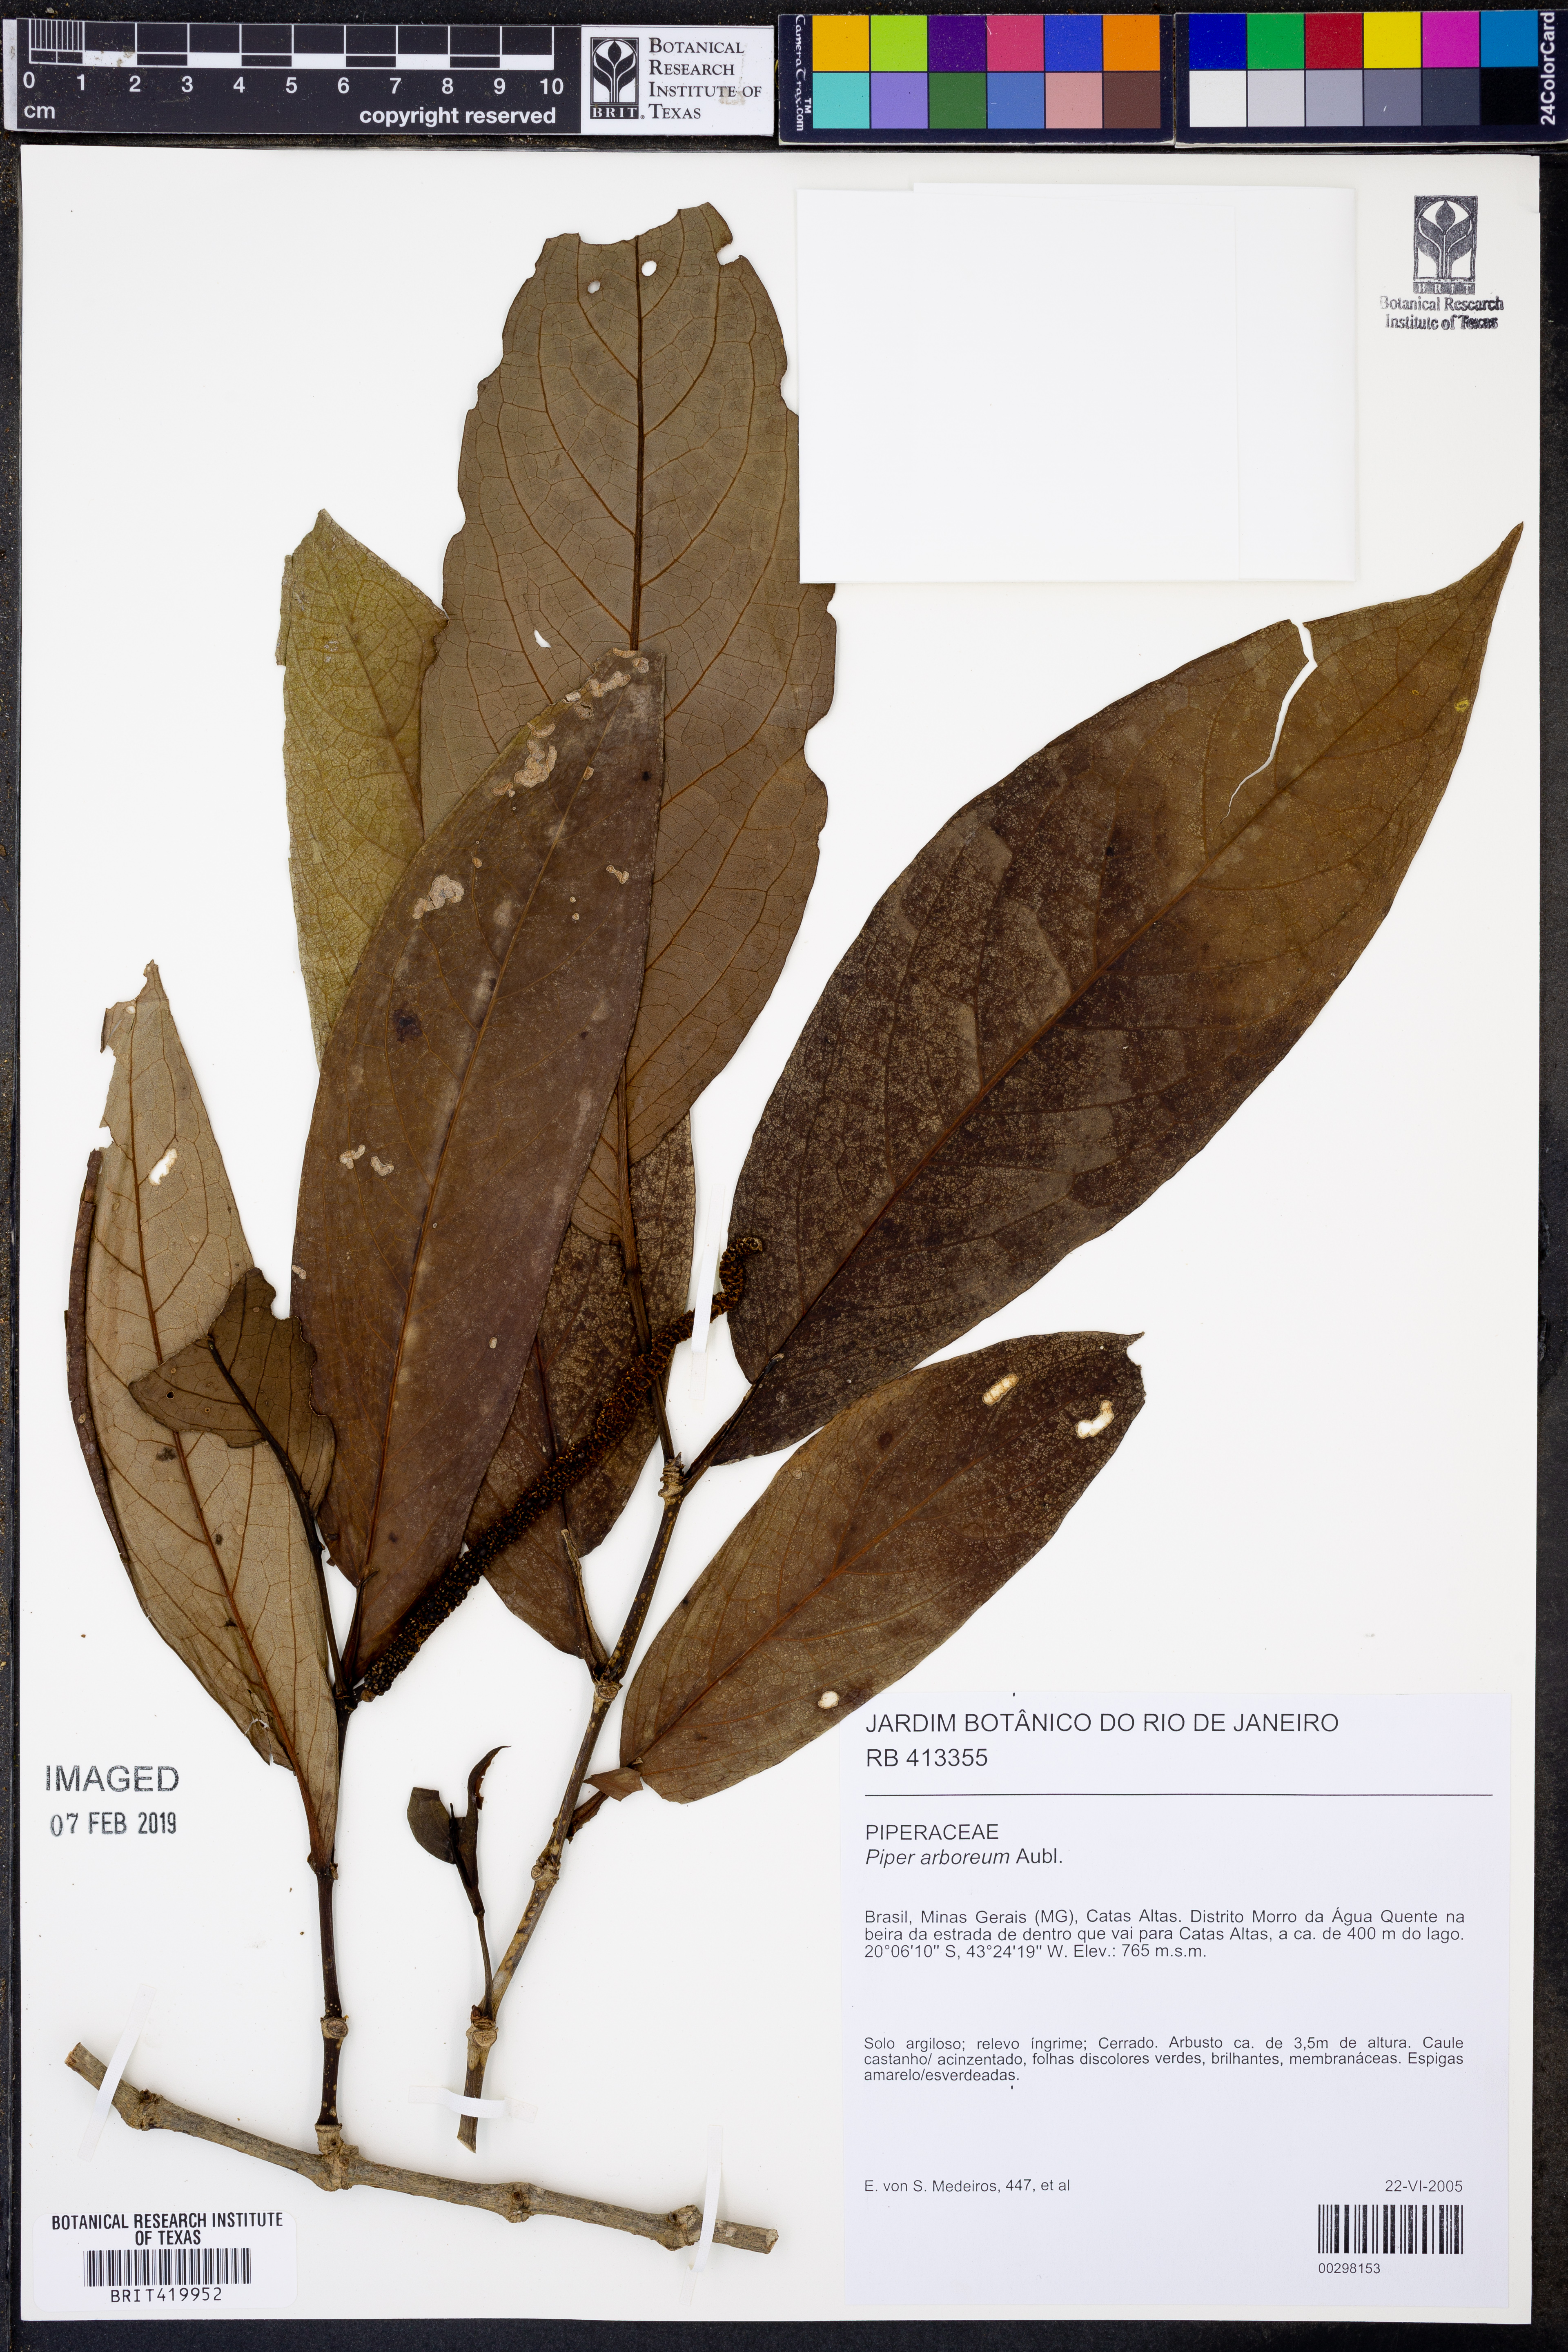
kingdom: Plantae
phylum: Tracheophyta
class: Magnoliopsida
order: Piperales
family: Piperaceae
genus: Piper
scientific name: Piper arboreum
